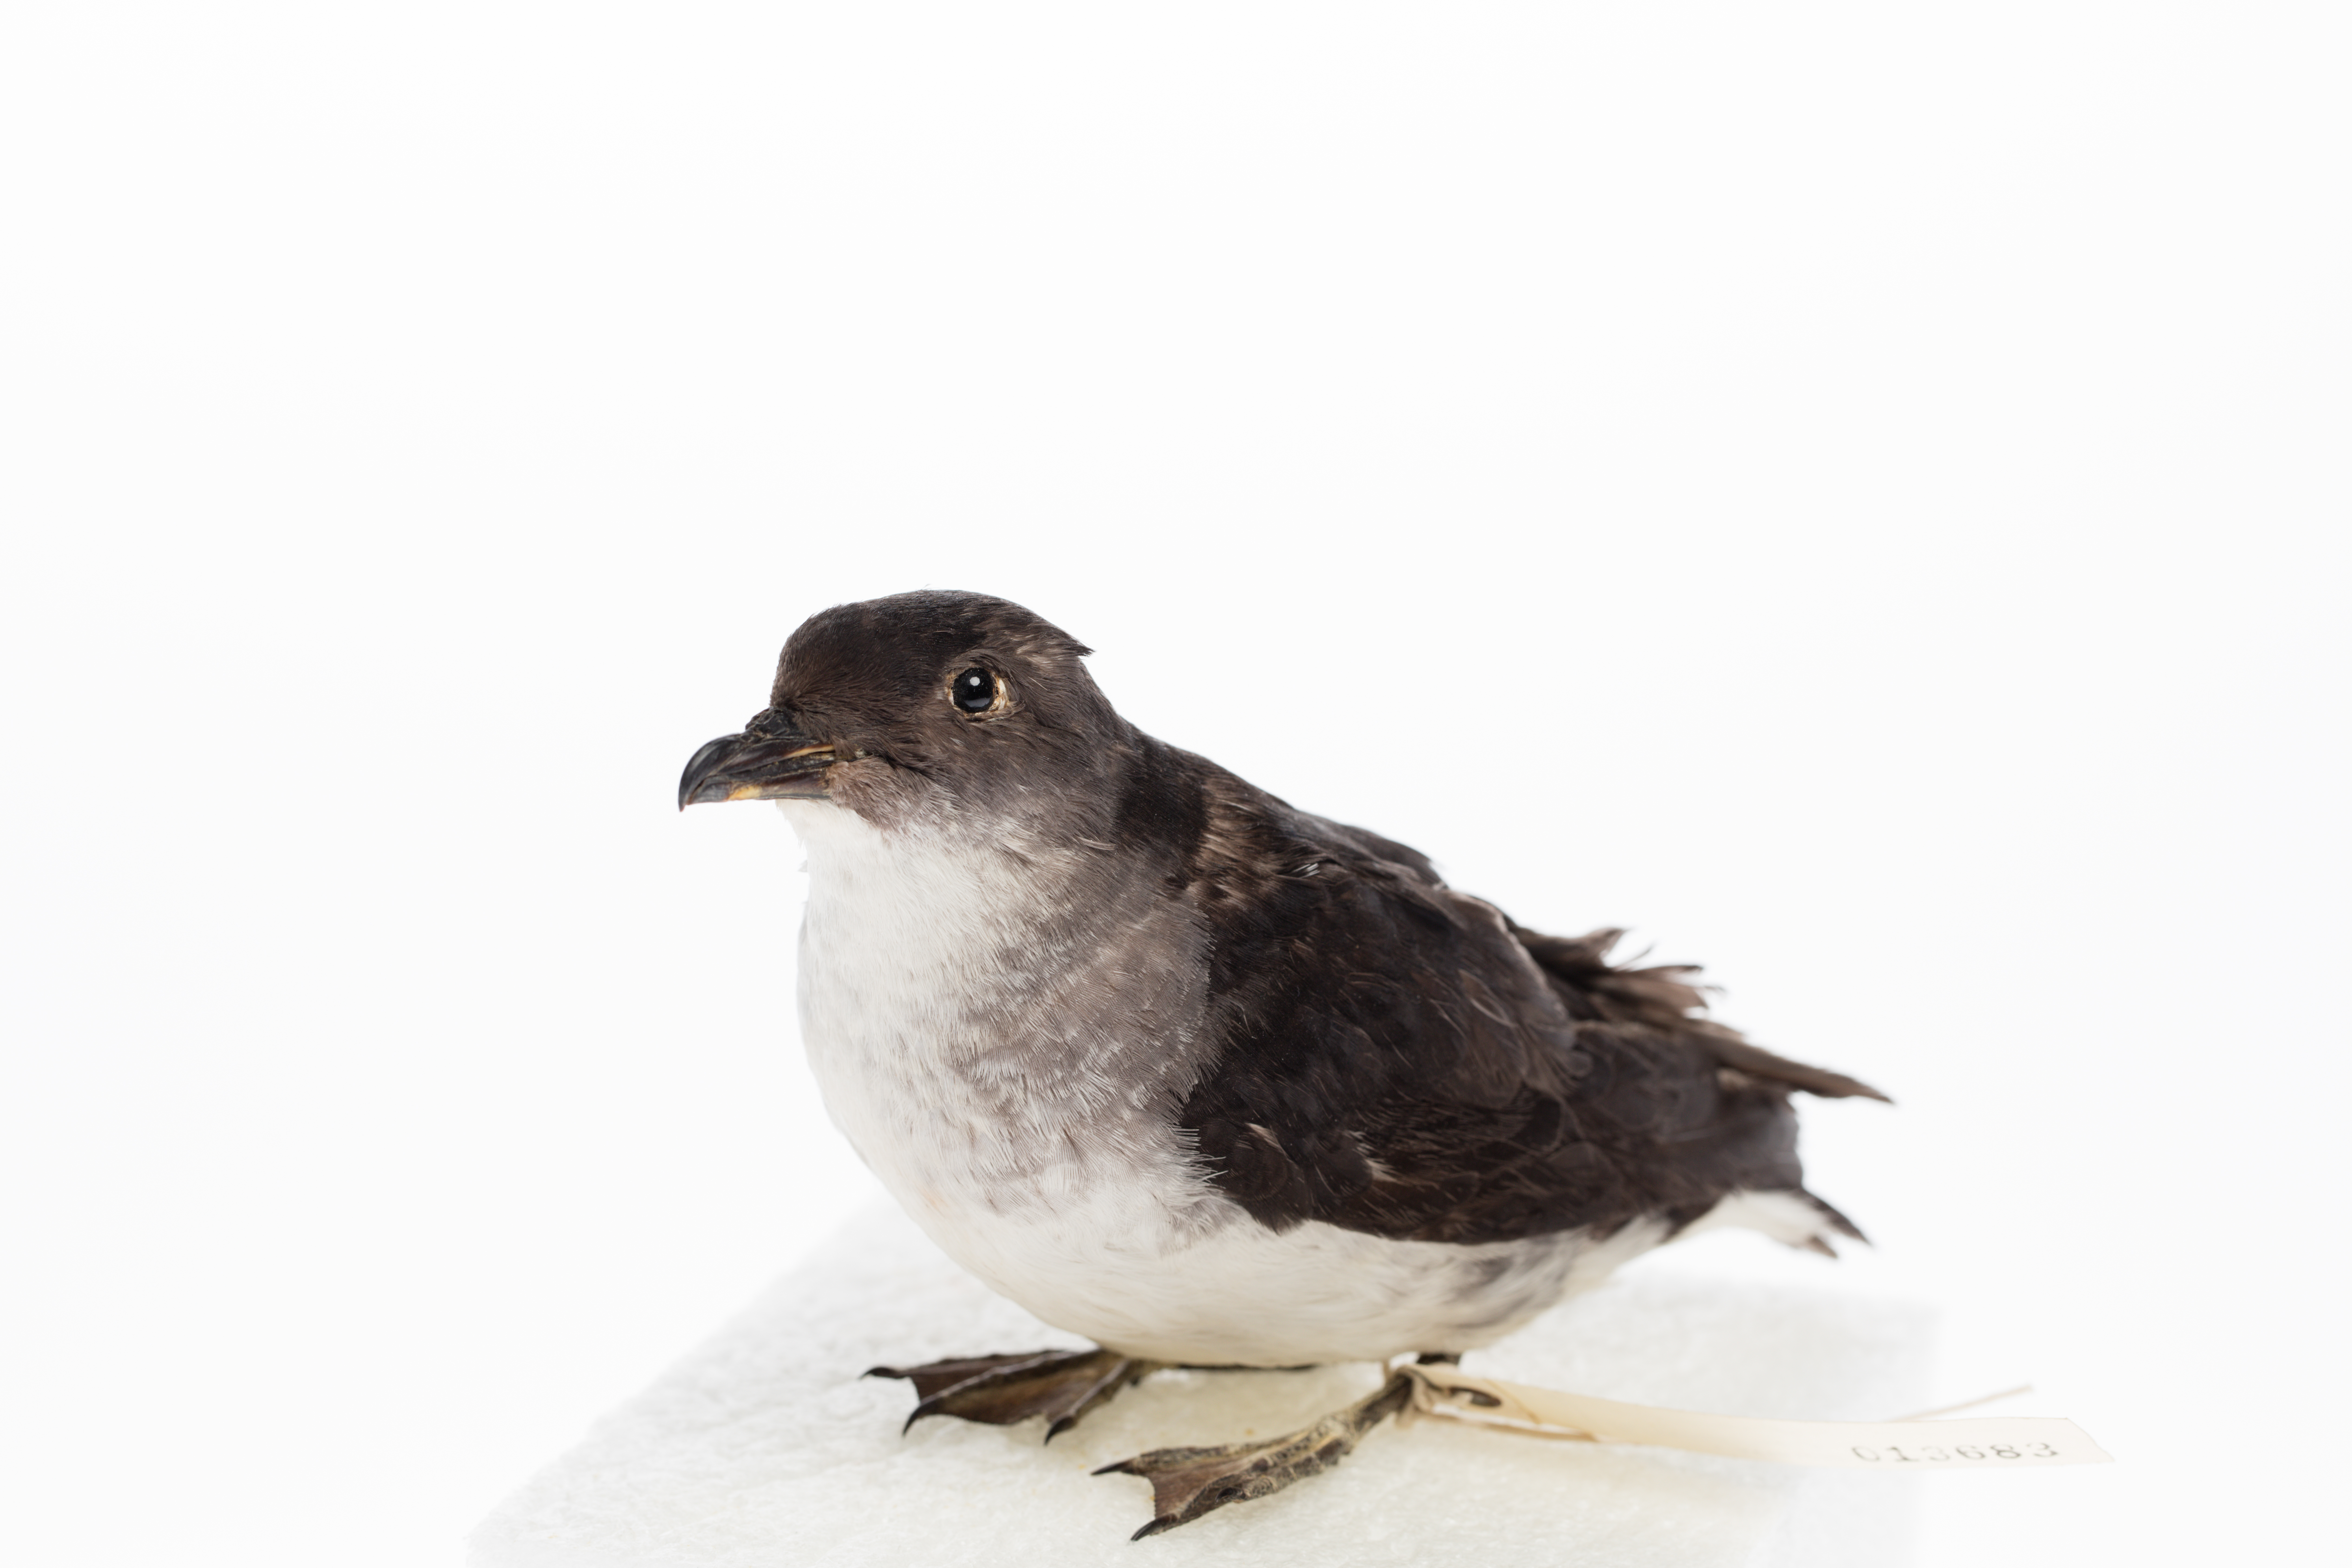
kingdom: Animalia
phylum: Chordata
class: Aves
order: Procellariiformes
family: Pelecanoididae
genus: Pelecanoides
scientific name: Pelecanoides urinatrix
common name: Common diving-petrel
